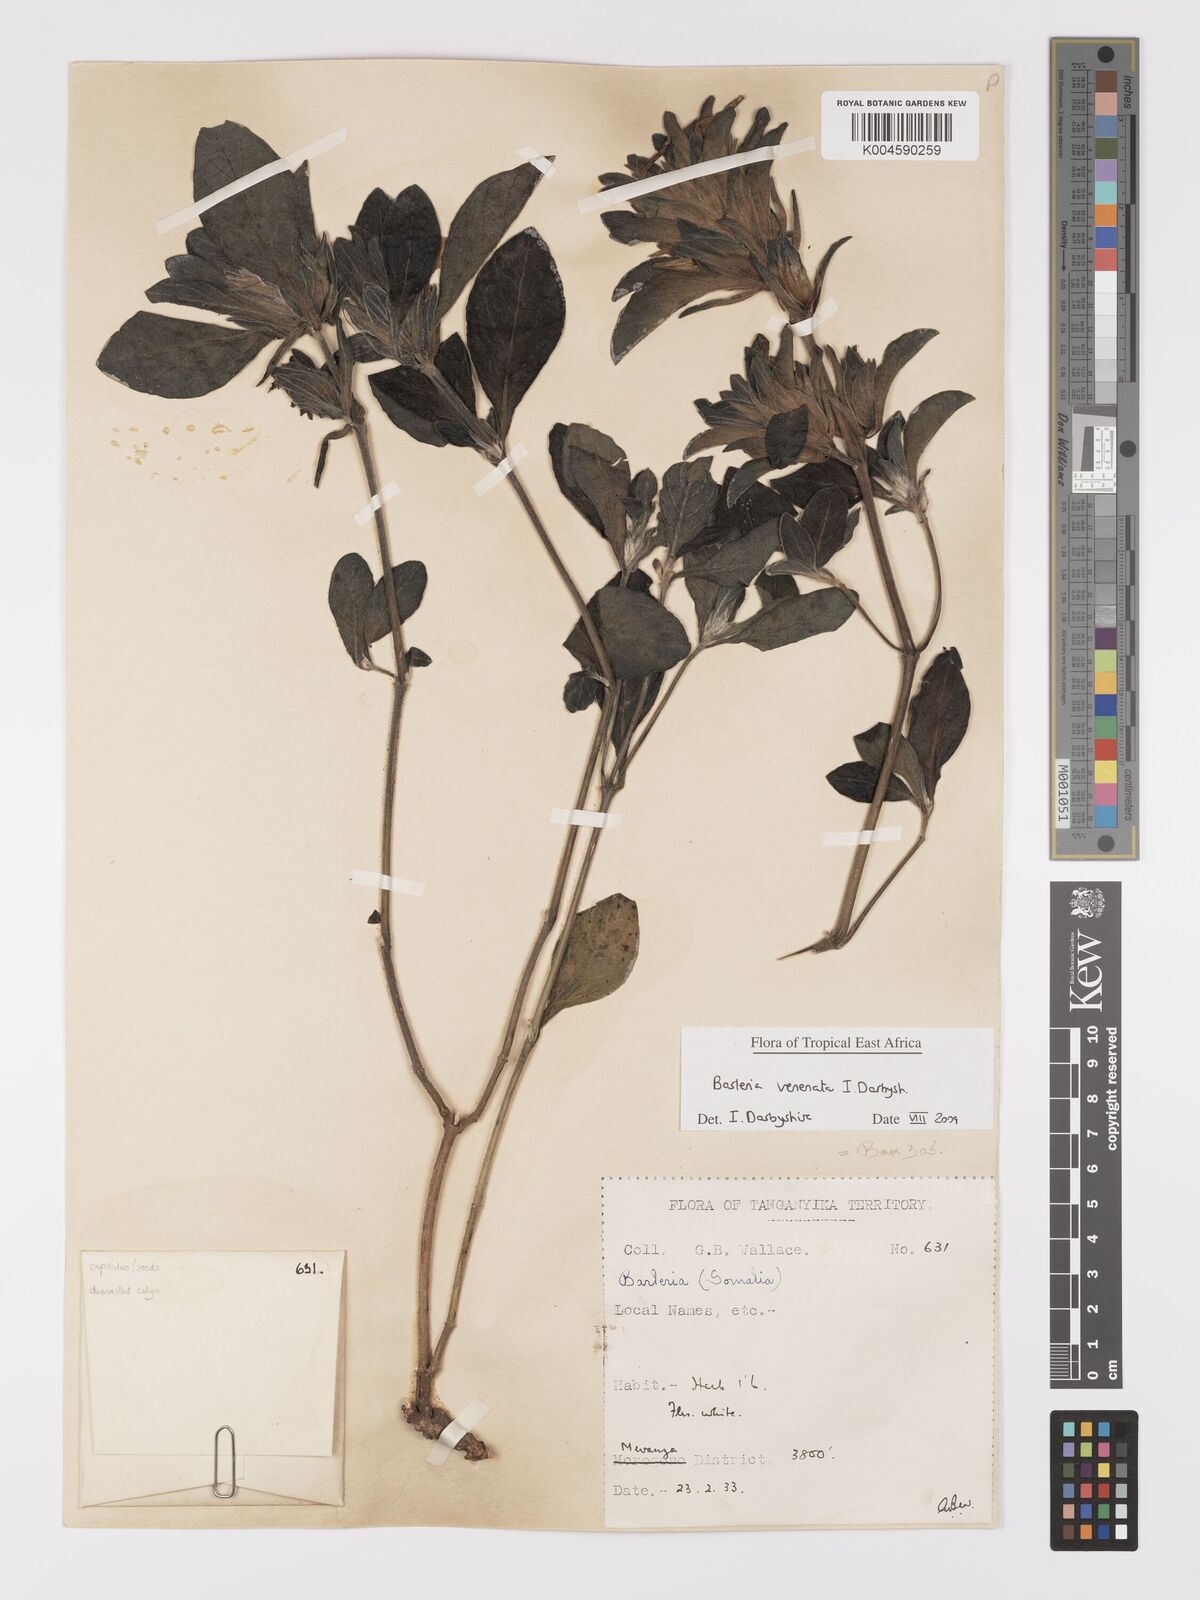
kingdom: Plantae
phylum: Tracheophyta
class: Magnoliopsida
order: Lamiales
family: Acanthaceae
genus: Barleria
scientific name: Barleria venenata
